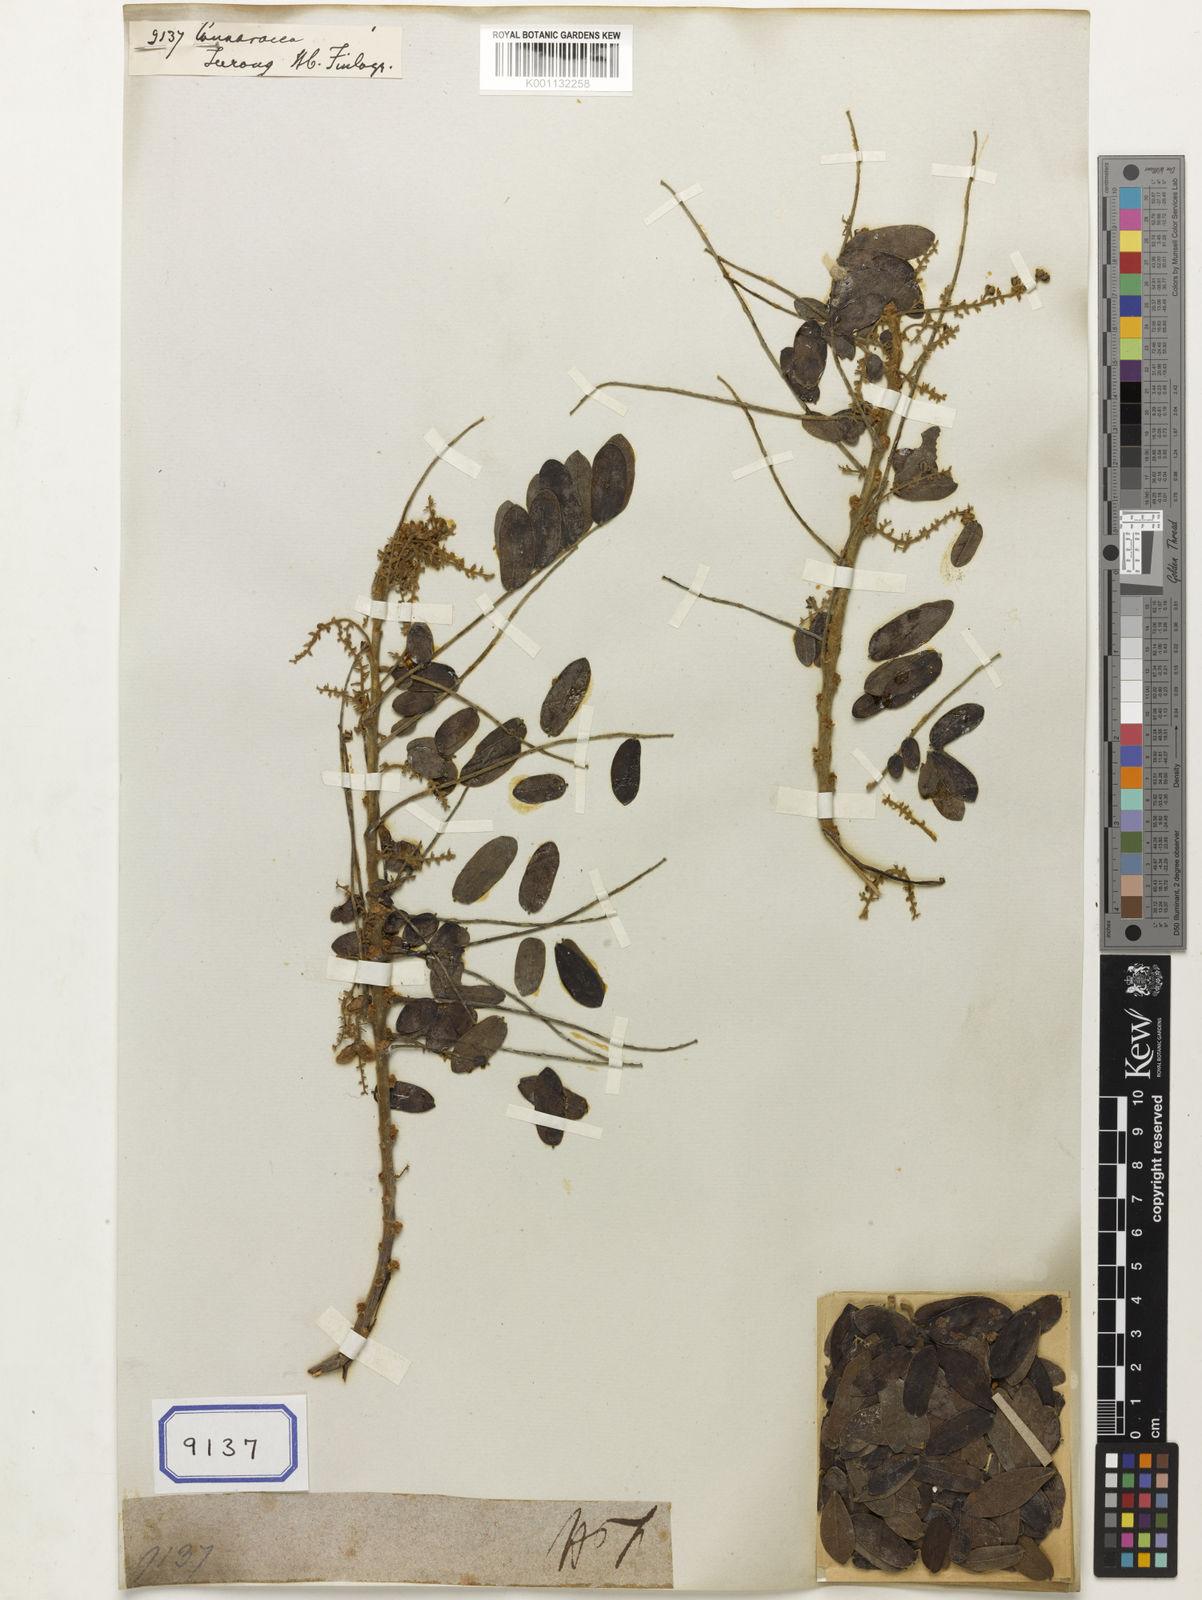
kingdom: Plantae
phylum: Tracheophyta
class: Magnoliopsida
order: Oxalidales
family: Connaraceae
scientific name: Connaraceae
